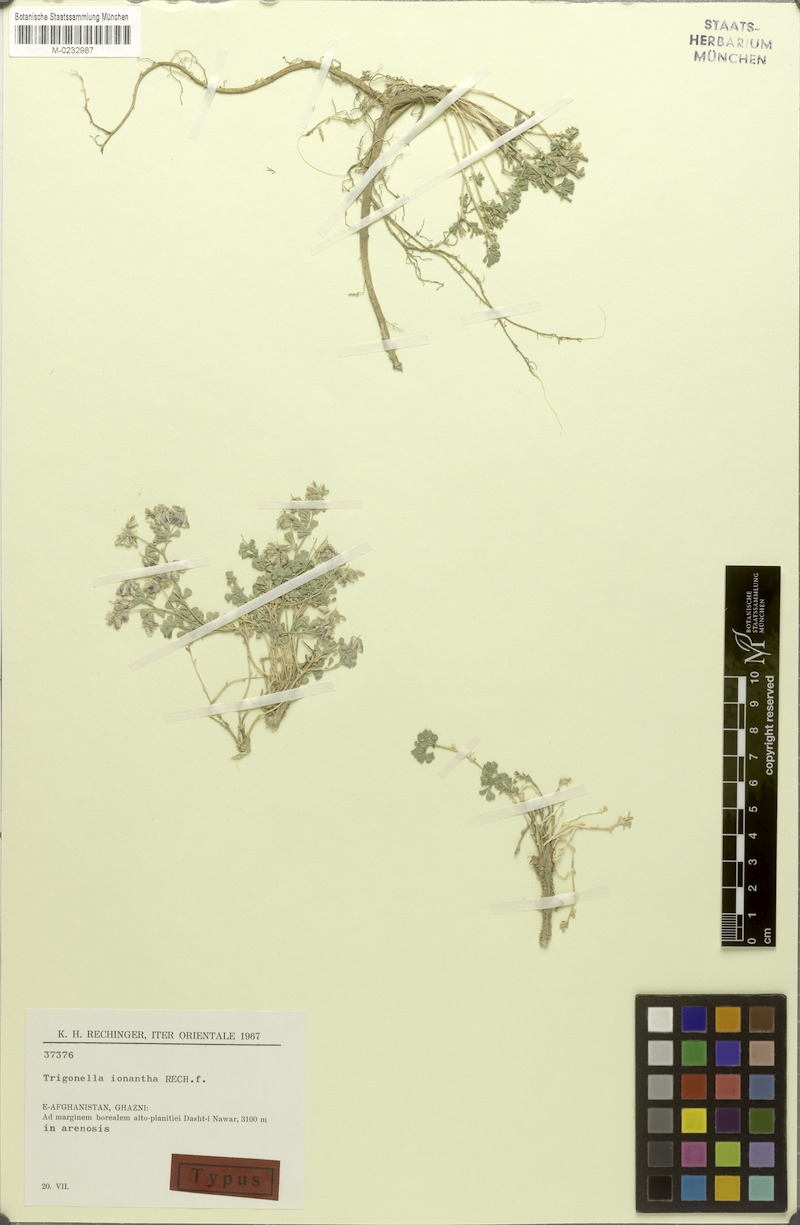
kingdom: Plantae
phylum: Tracheophyta
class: Magnoliopsida
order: Fabales
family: Fabaceae
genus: Trigonella
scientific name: Trigonella ionantha
